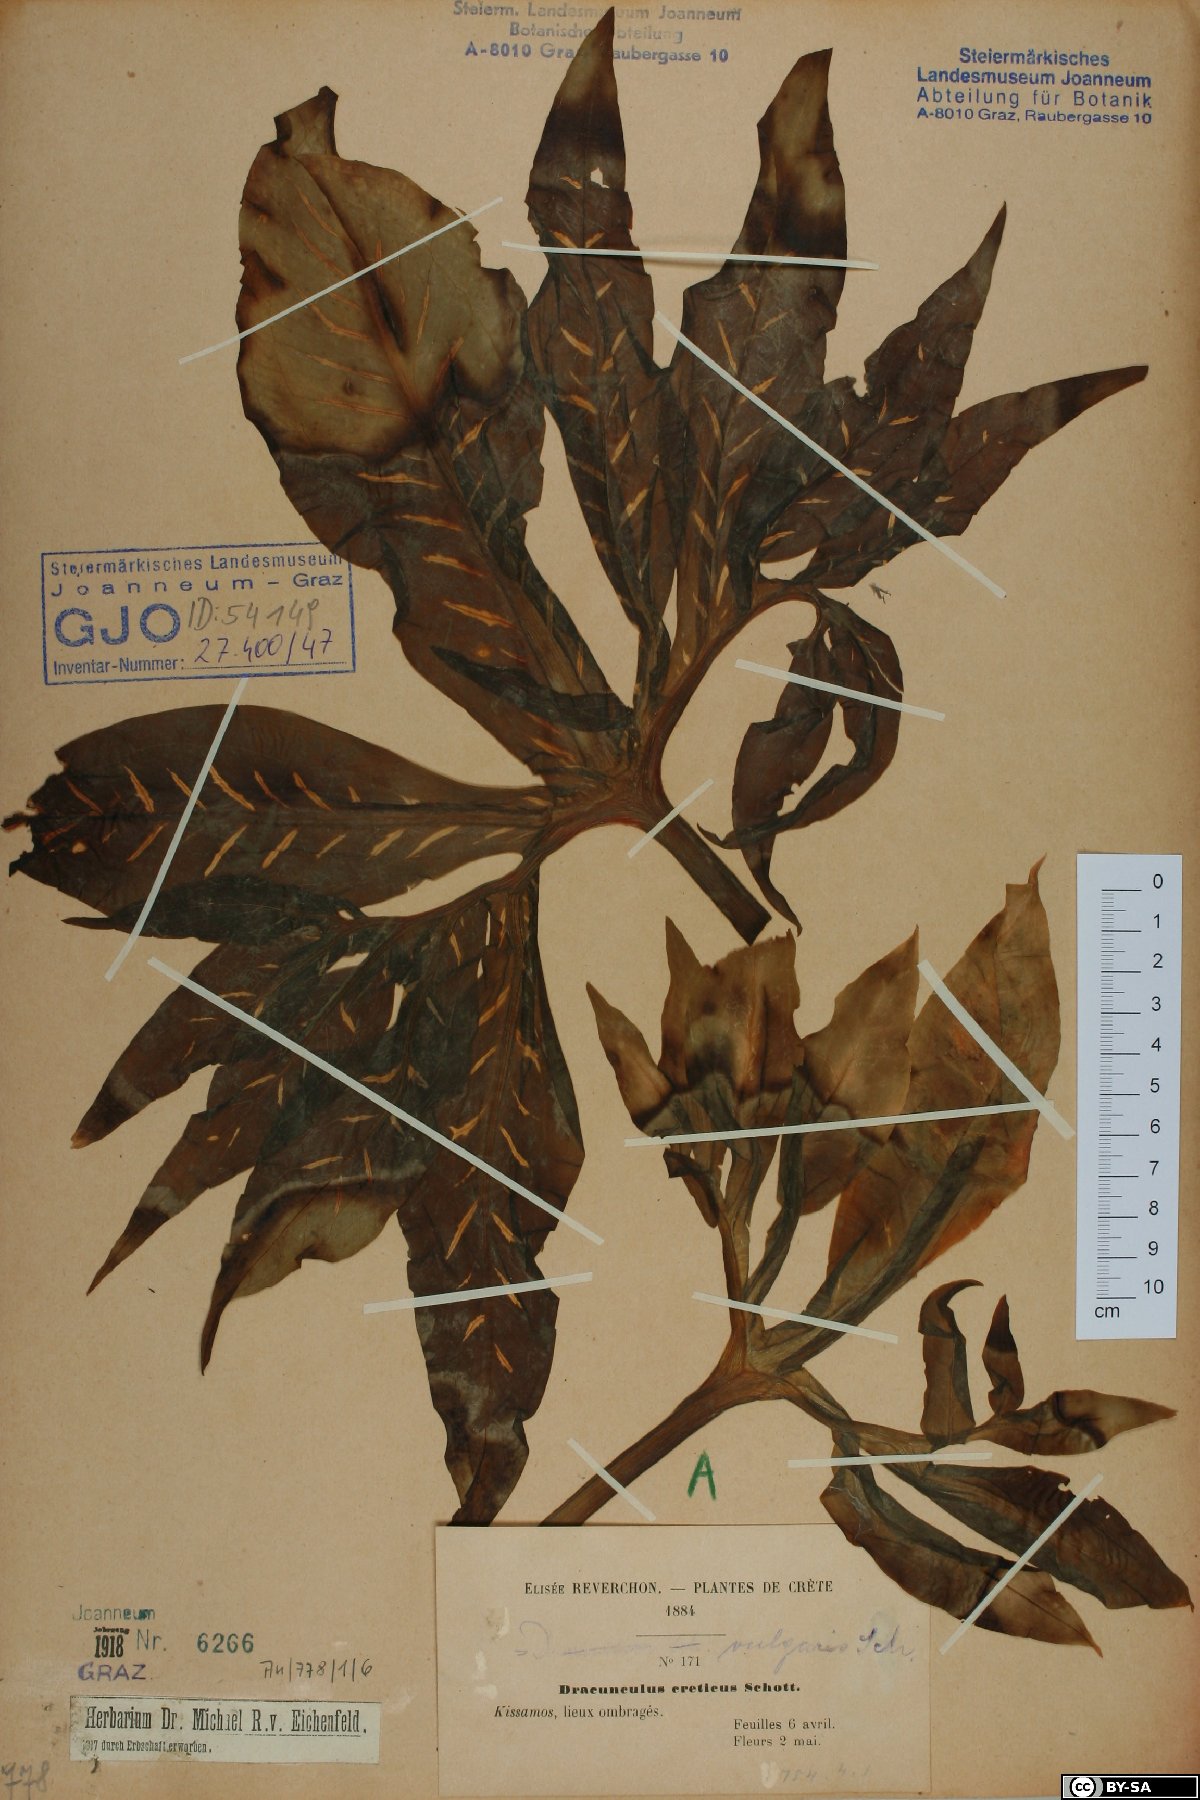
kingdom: Plantae
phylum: Tracheophyta
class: Liliopsida
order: Alismatales
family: Araceae
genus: Dracunculus
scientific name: Dracunculus vulgaris
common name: Dragon arum
